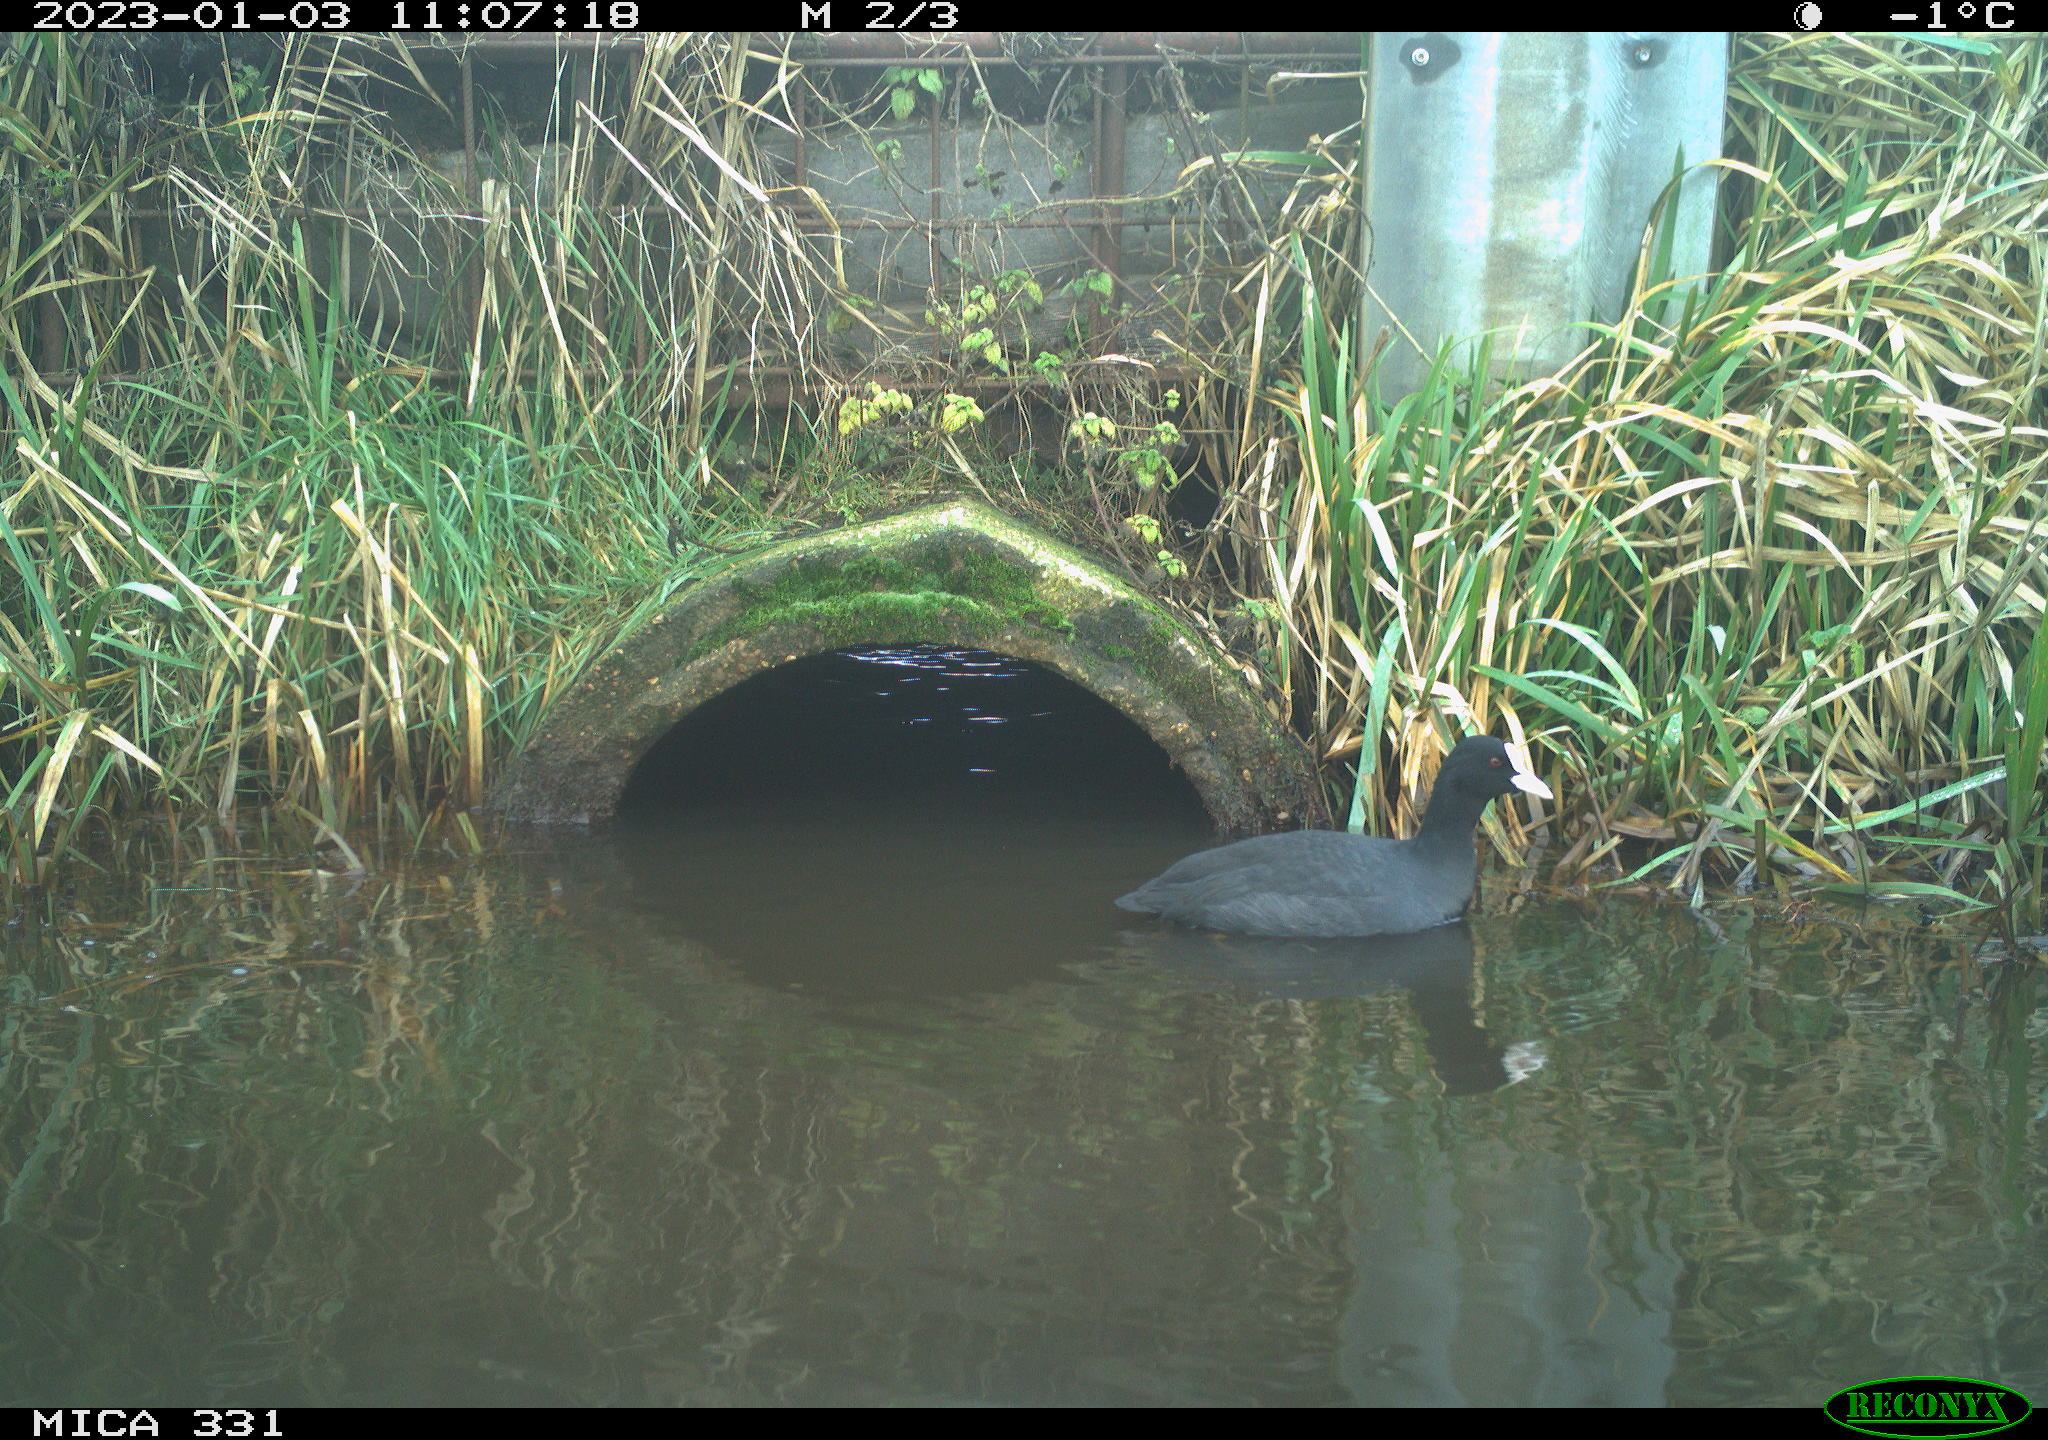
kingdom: Animalia
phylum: Chordata
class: Aves
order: Gruiformes
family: Rallidae
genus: Fulica
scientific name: Fulica atra
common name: Eurasian coot
